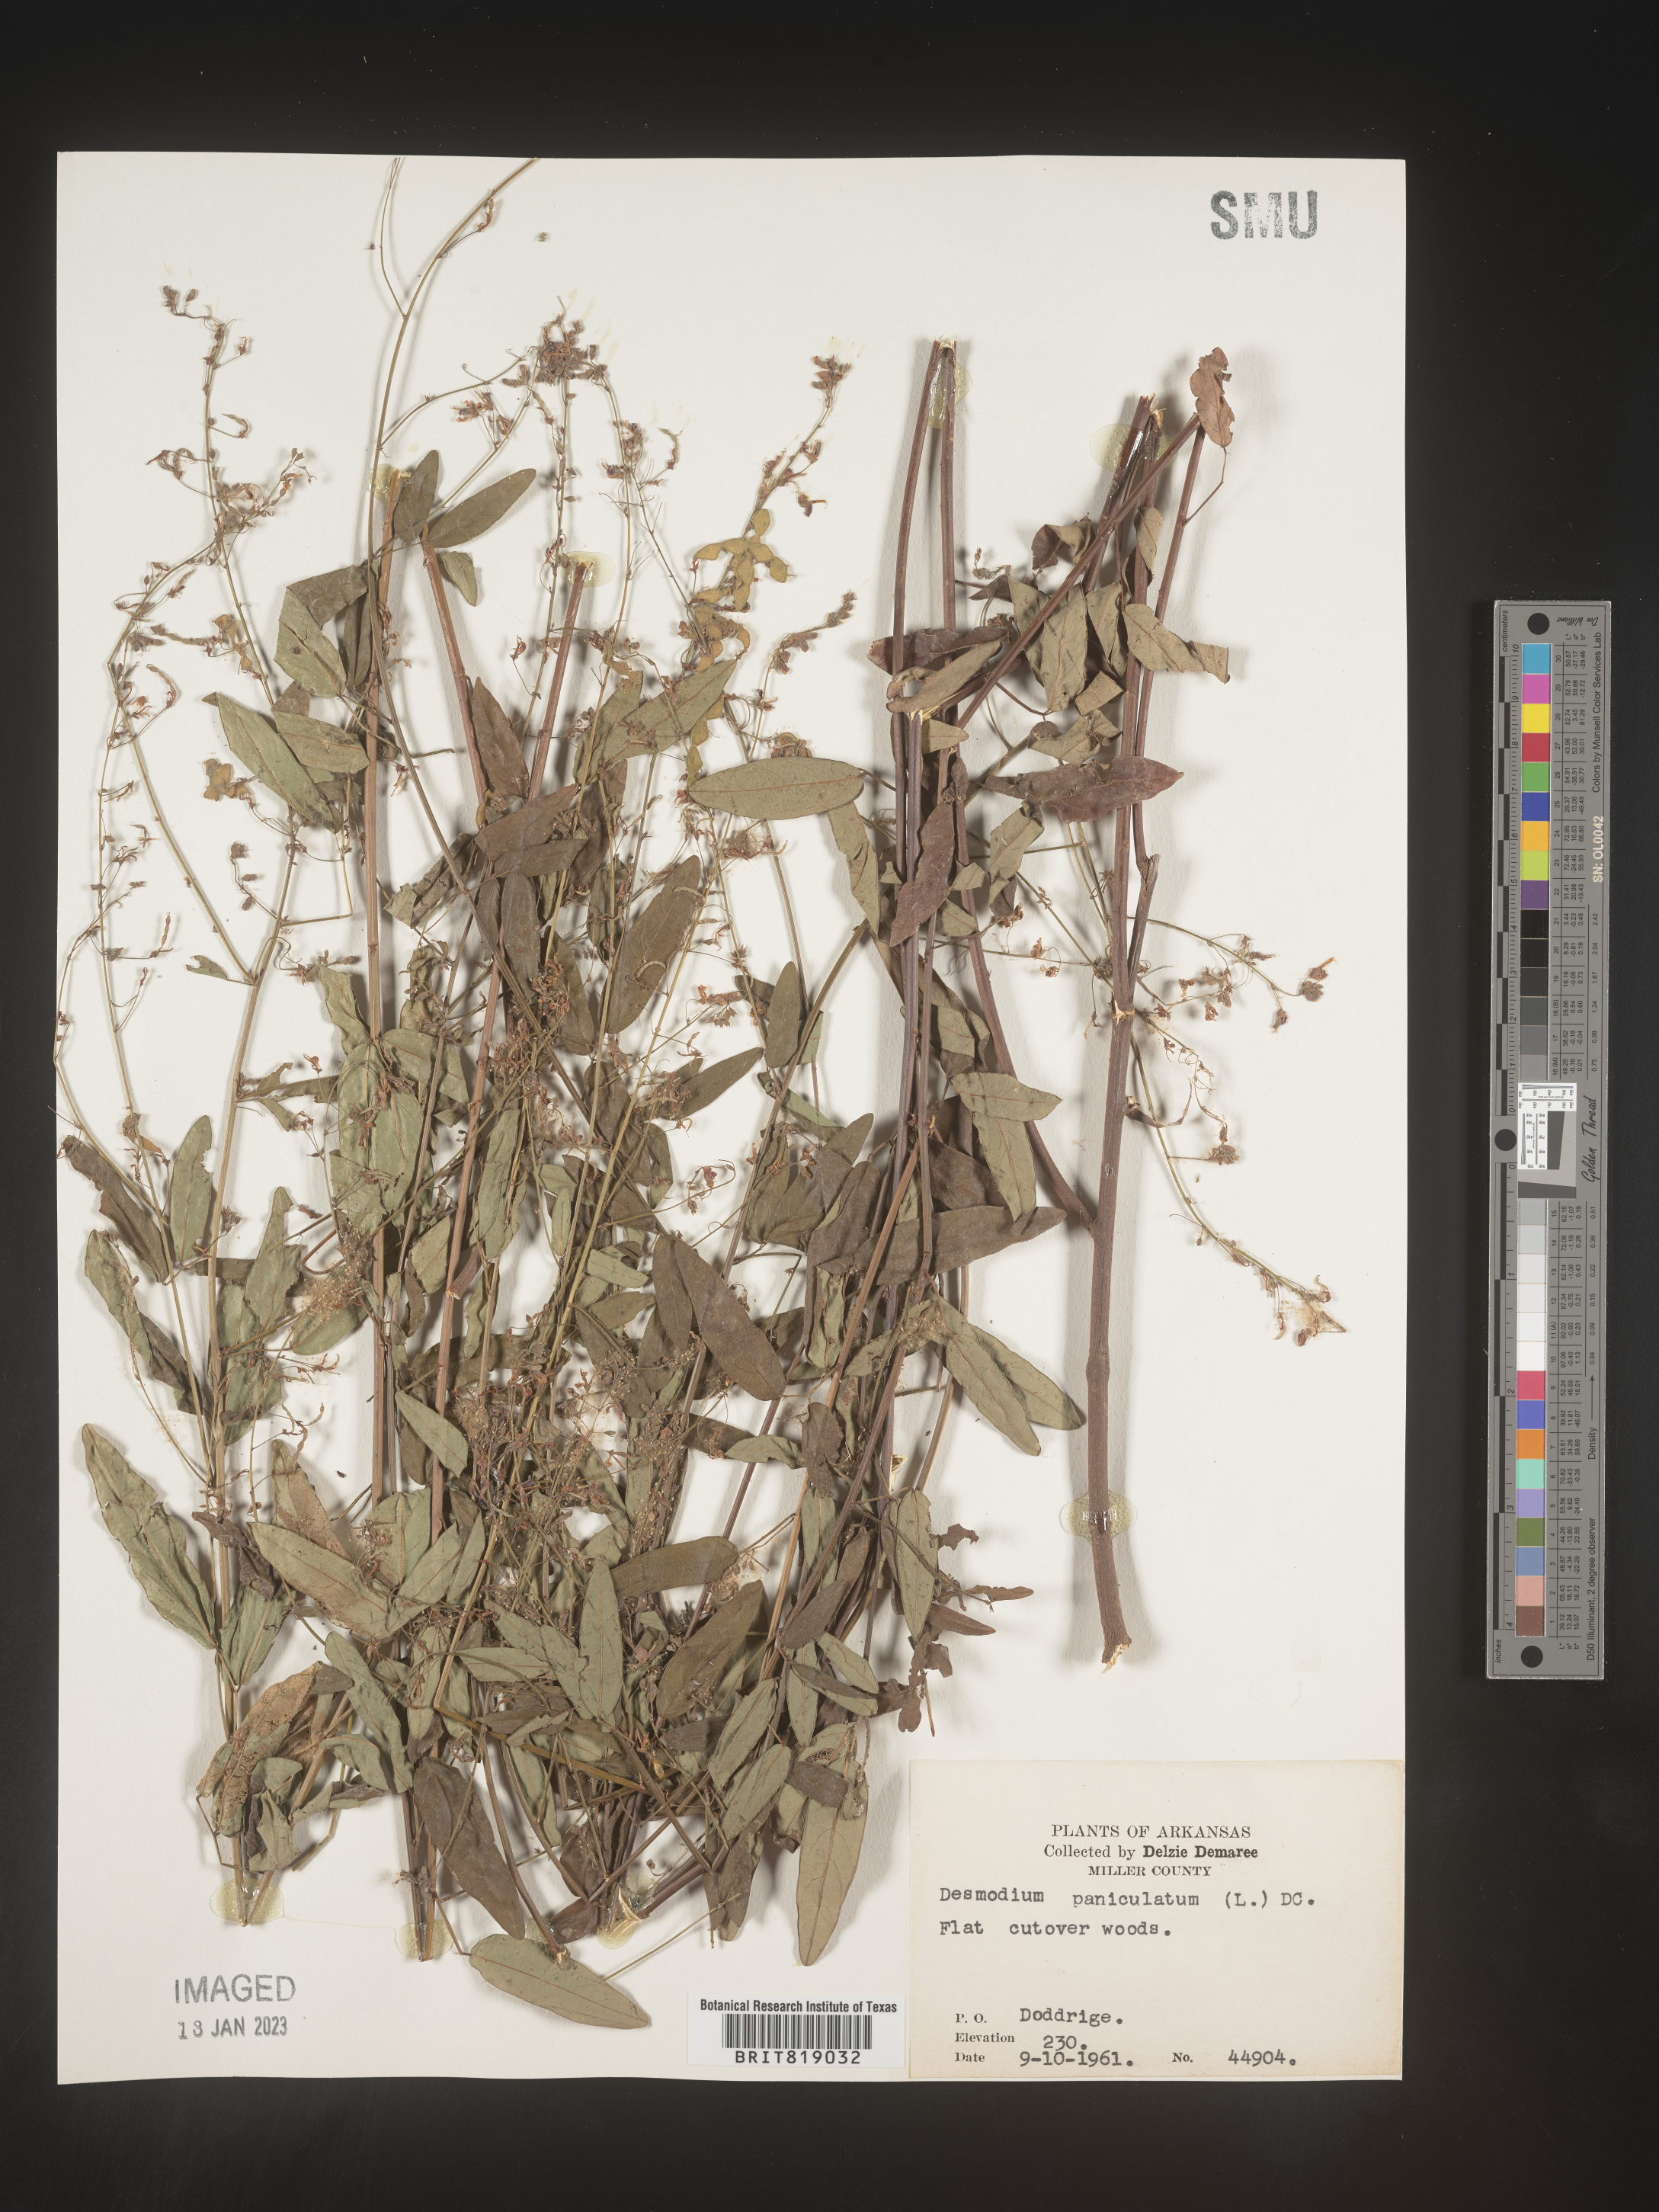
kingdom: Plantae
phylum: Tracheophyta
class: Magnoliopsida
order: Fabales
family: Fabaceae
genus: Desmodium
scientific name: Desmodium paniculatum
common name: Panicled tick-clover
